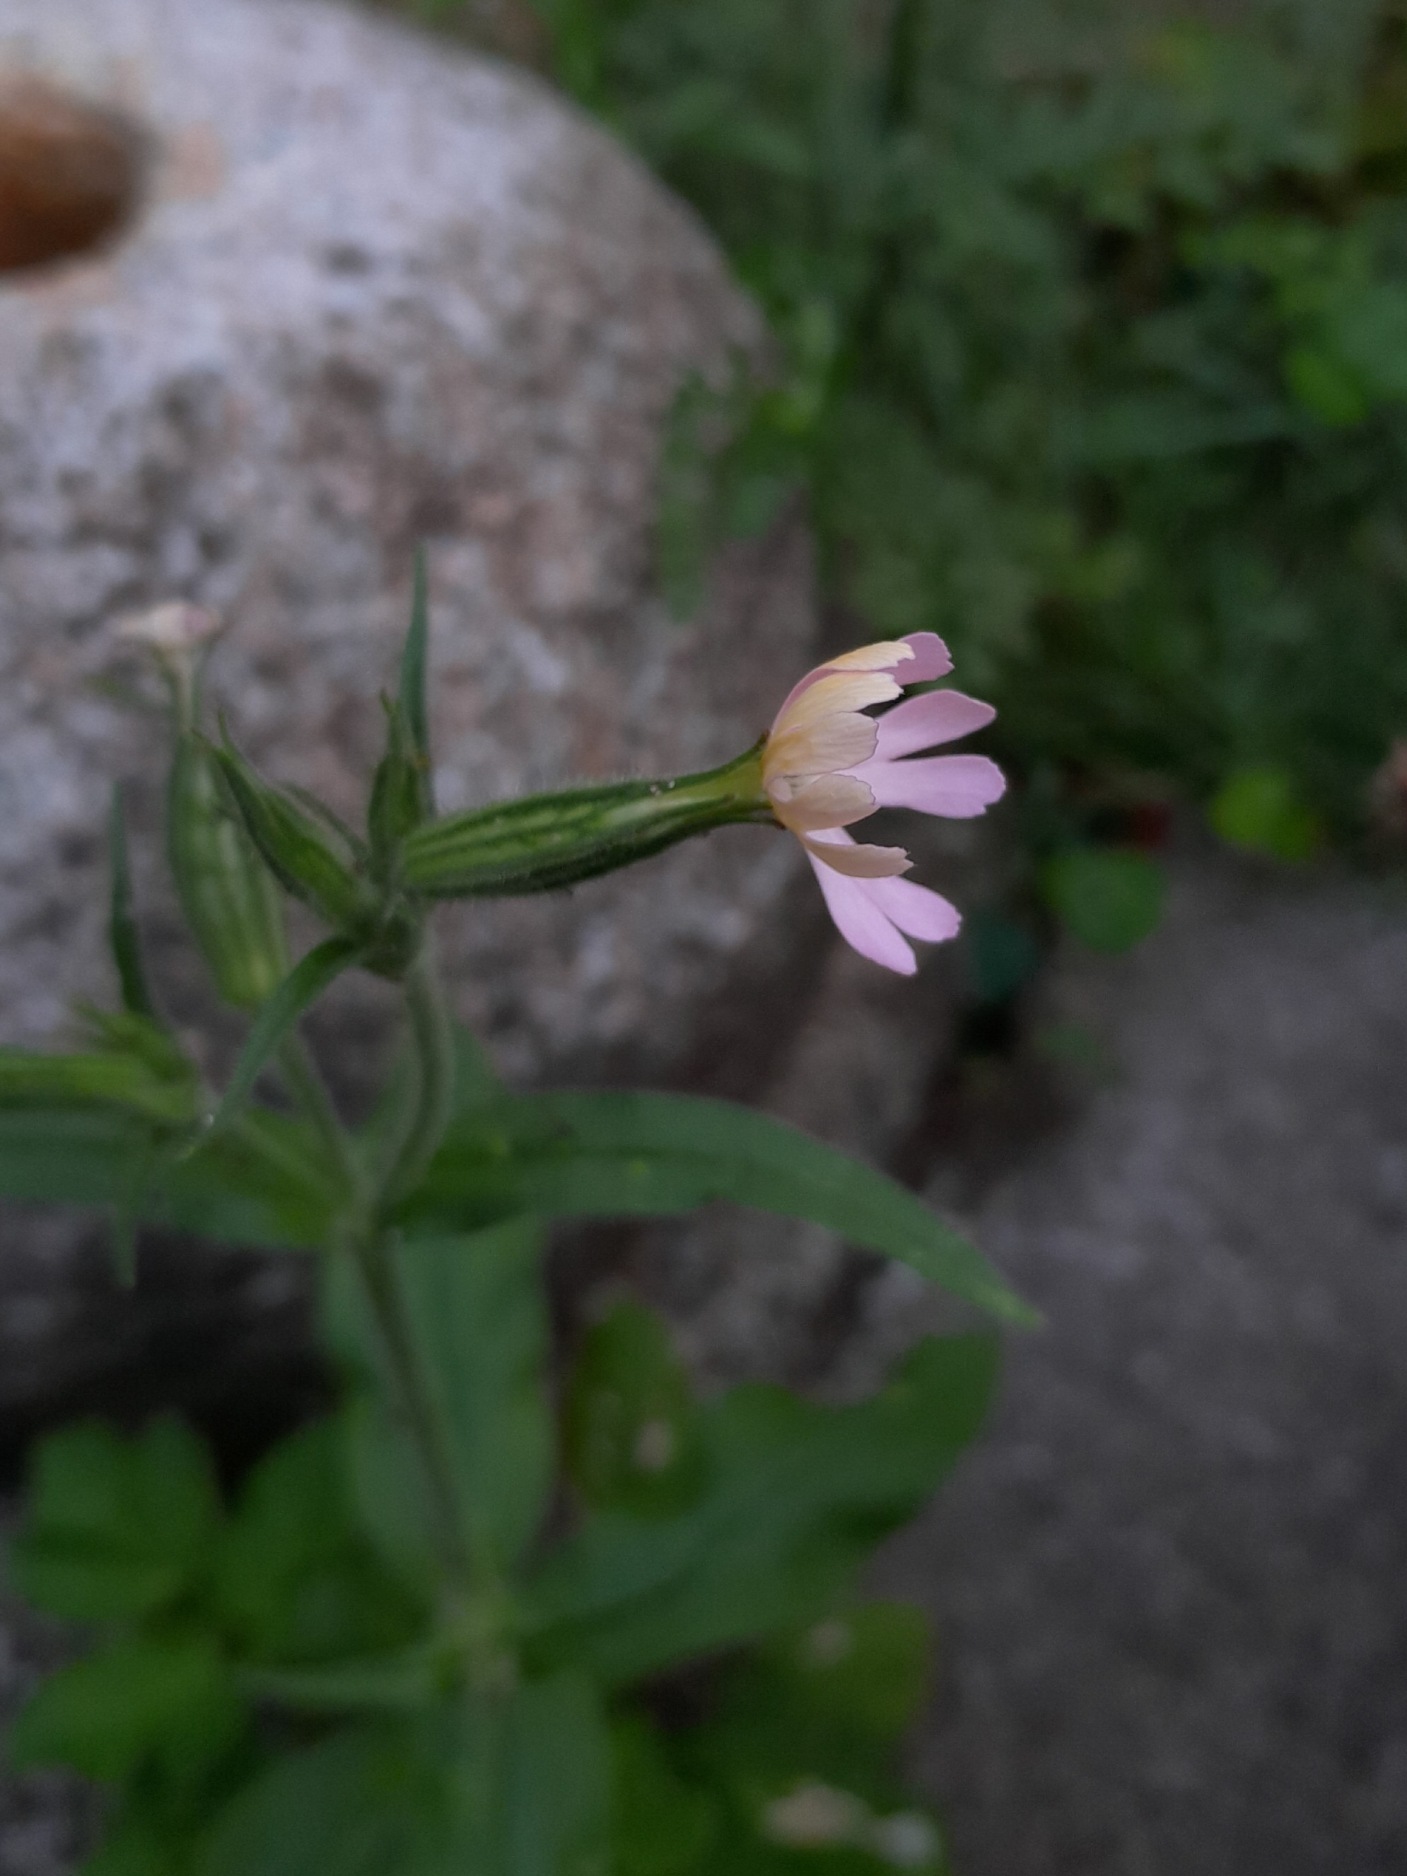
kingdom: Plantae
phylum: Tracheophyta
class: Magnoliopsida
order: Caryophyllales
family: Caryophyllaceae
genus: Silene
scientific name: Silene noctiflora
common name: Nat-limurt
